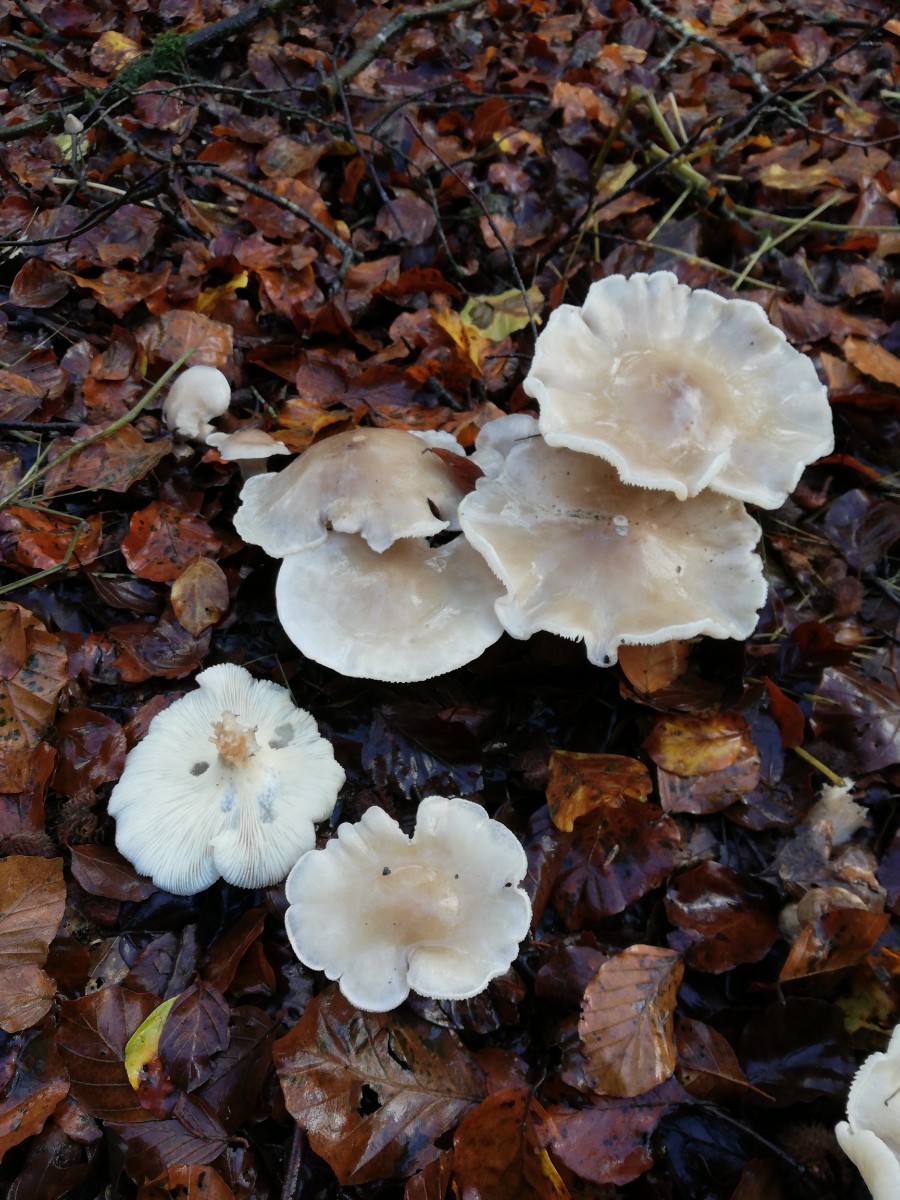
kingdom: Fungi
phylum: Basidiomycota
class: Agaricomycetes
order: Agaricales
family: Tricholomataceae
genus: Clitocybe
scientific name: Clitocybe nebularis
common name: tåge-tragthat
